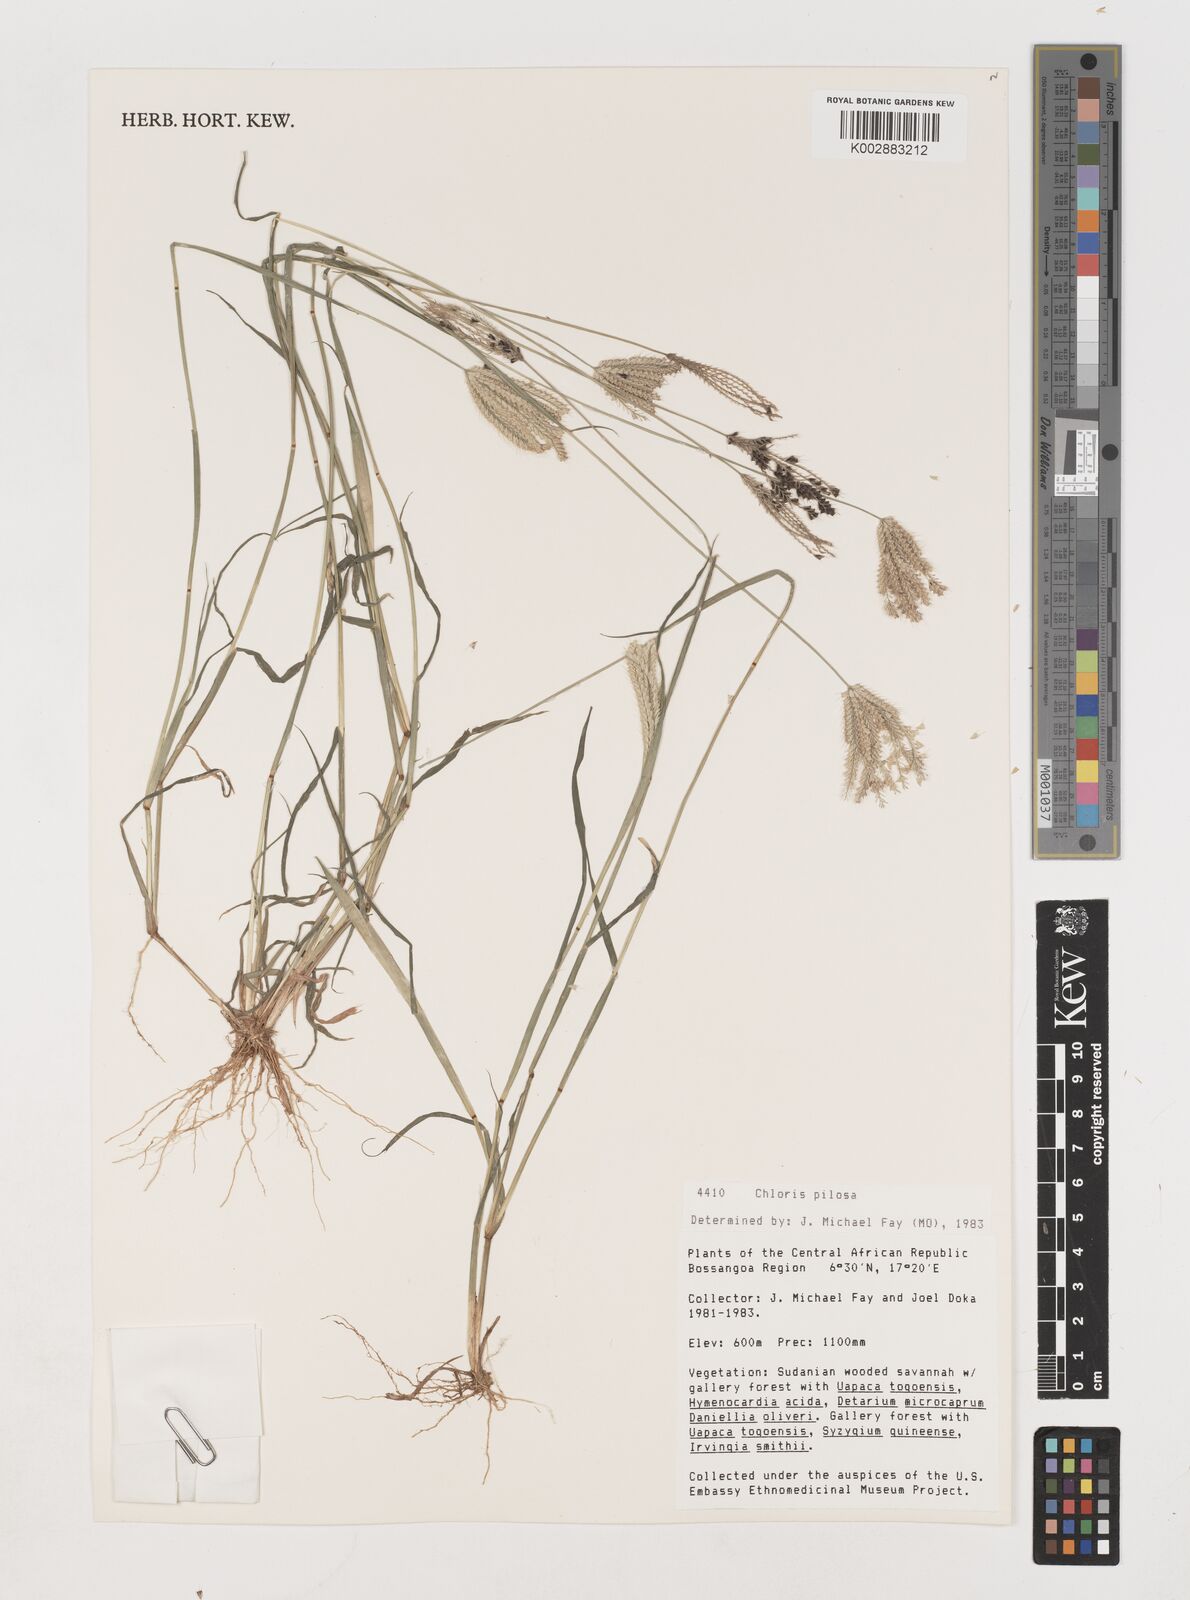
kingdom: Plantae
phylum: Tracheophyta
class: Liliopsida
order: Poales
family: Poaceae
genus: Chloris
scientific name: Chloris pilosa
